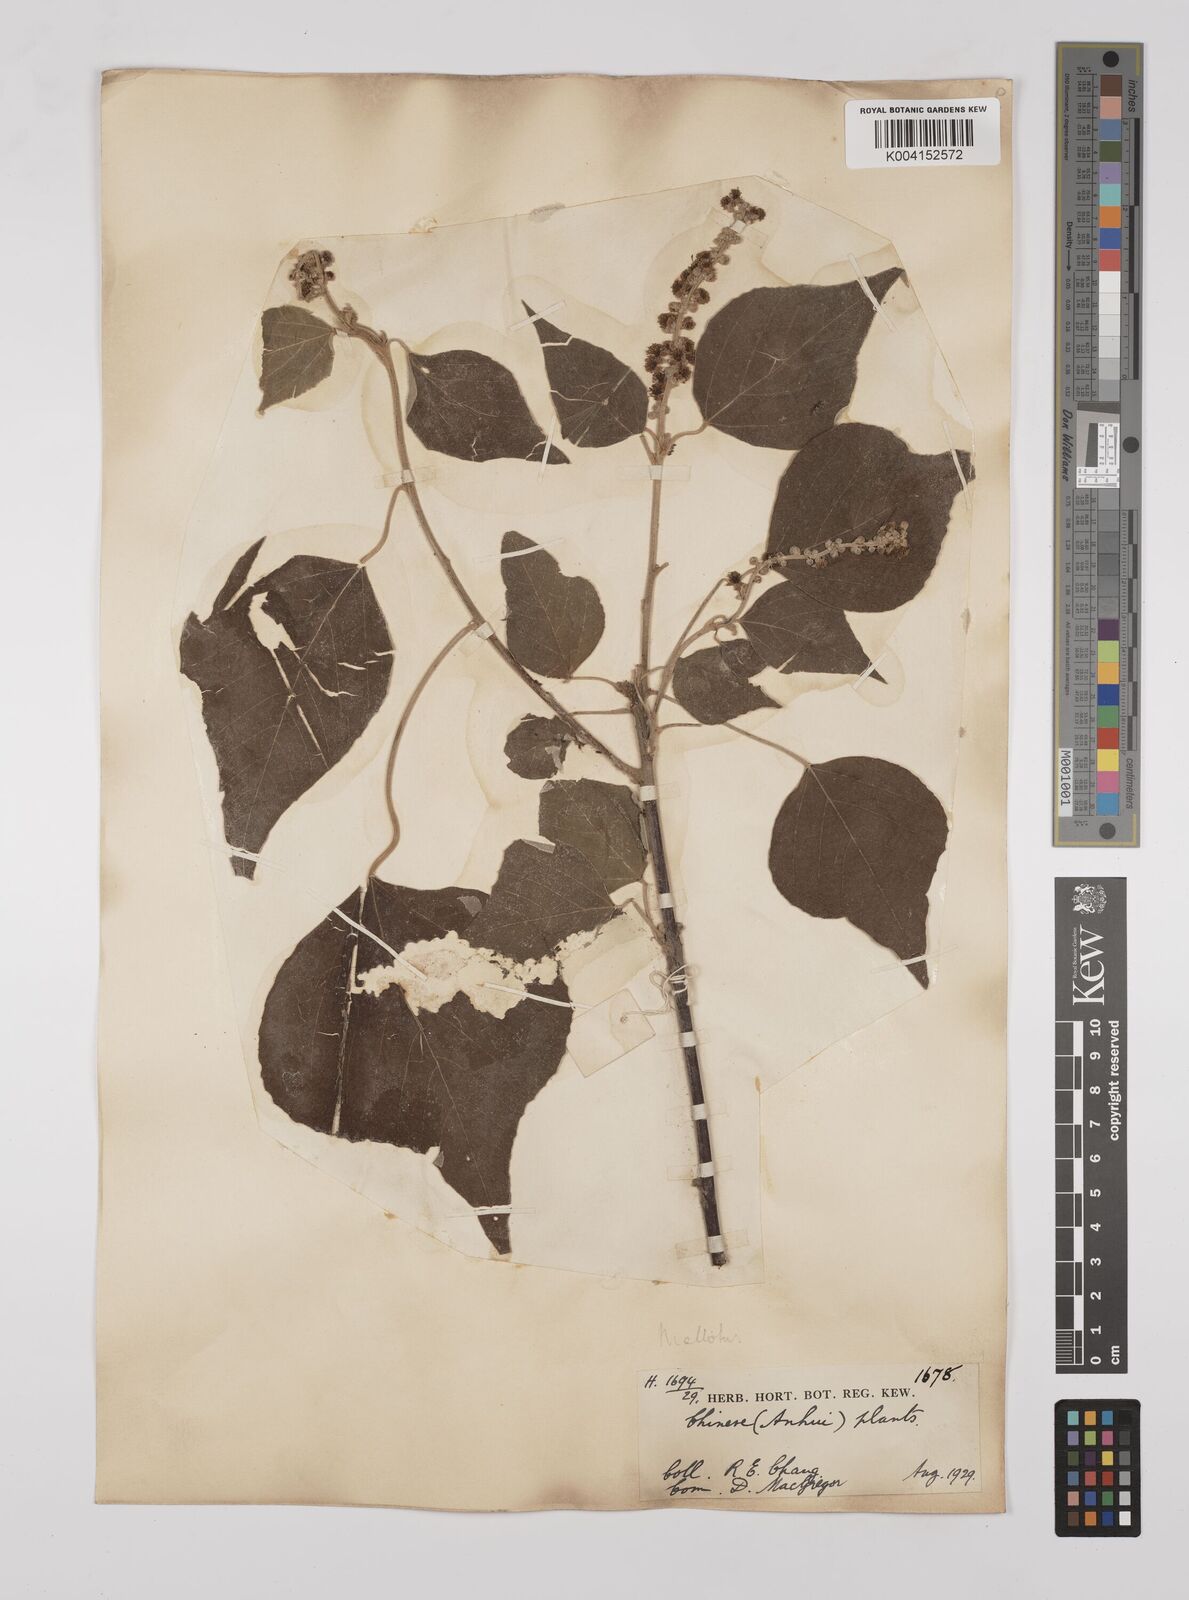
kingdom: Plantae
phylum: Tracheophyta
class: Magnoliopsida
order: Malpighiales
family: Euphorbiaceae
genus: Mallotus
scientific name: Mallotus japonicus
